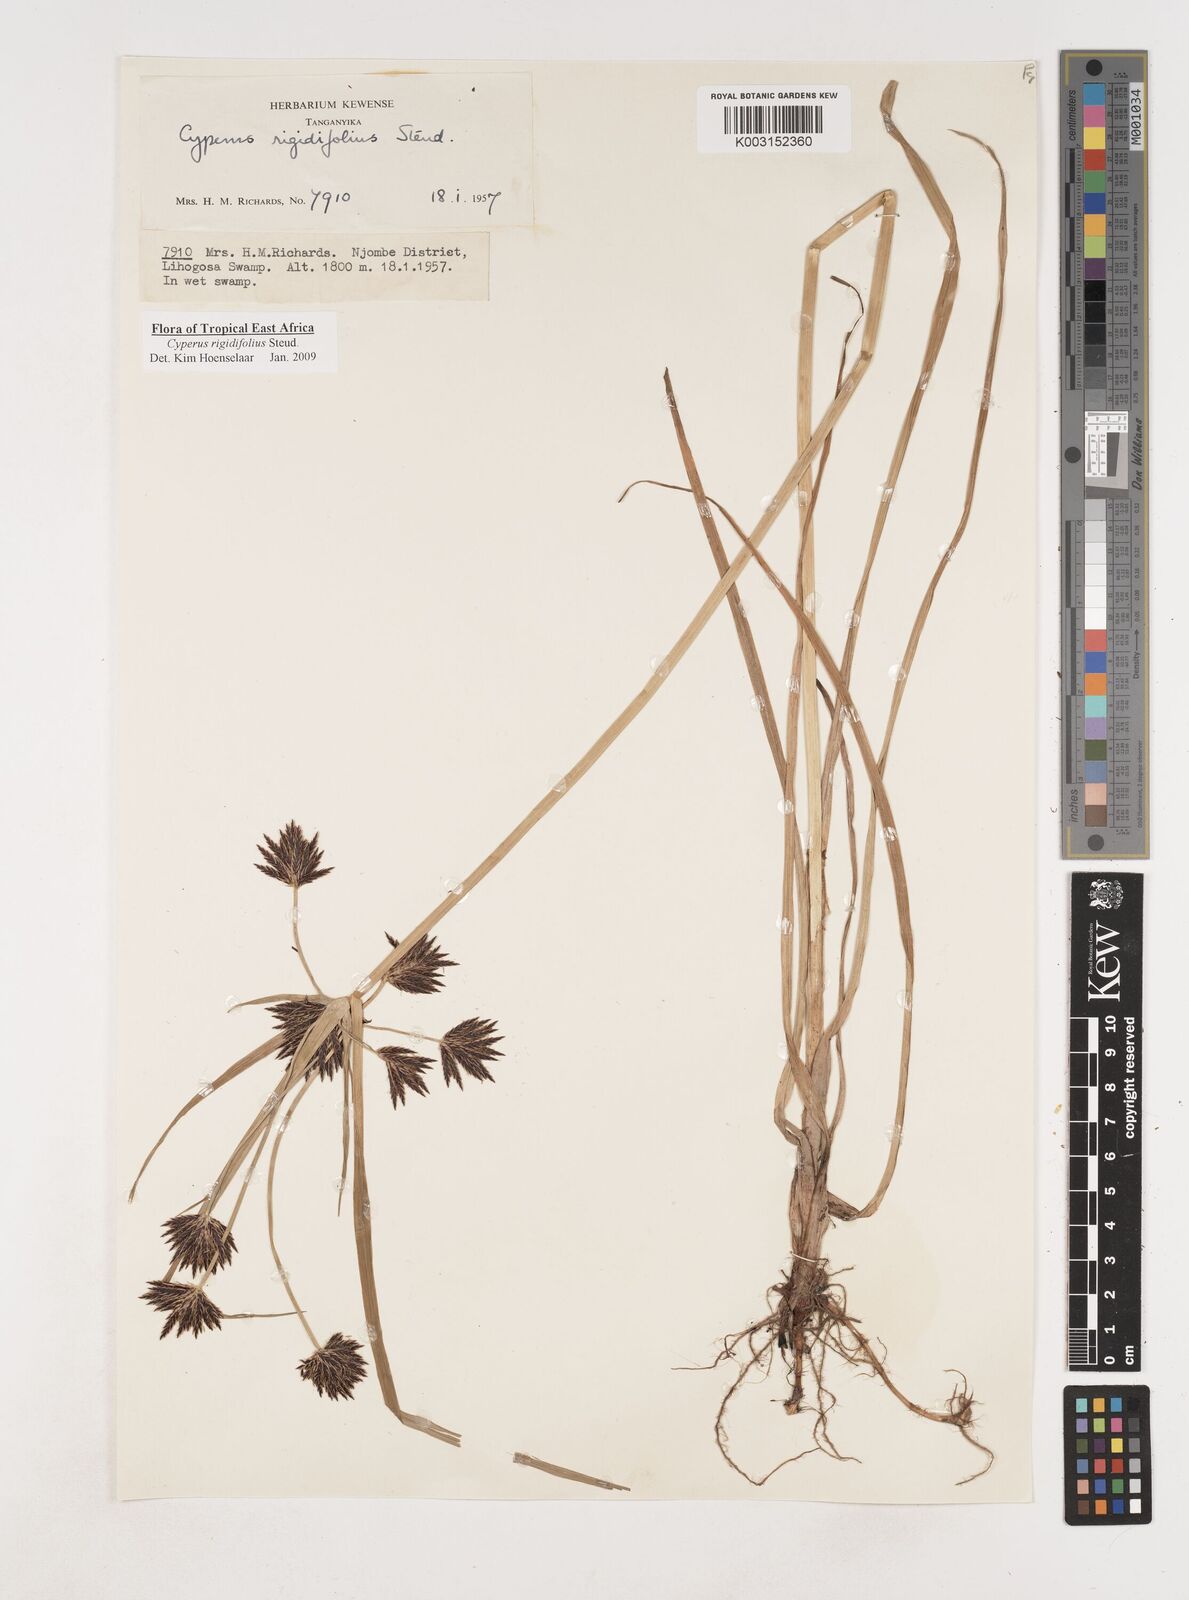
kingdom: Plantae
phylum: Tracheophyta
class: Liliopsida
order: Poales
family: Cyperaceae
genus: Cyperus
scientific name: Cyperus rigidifolius
